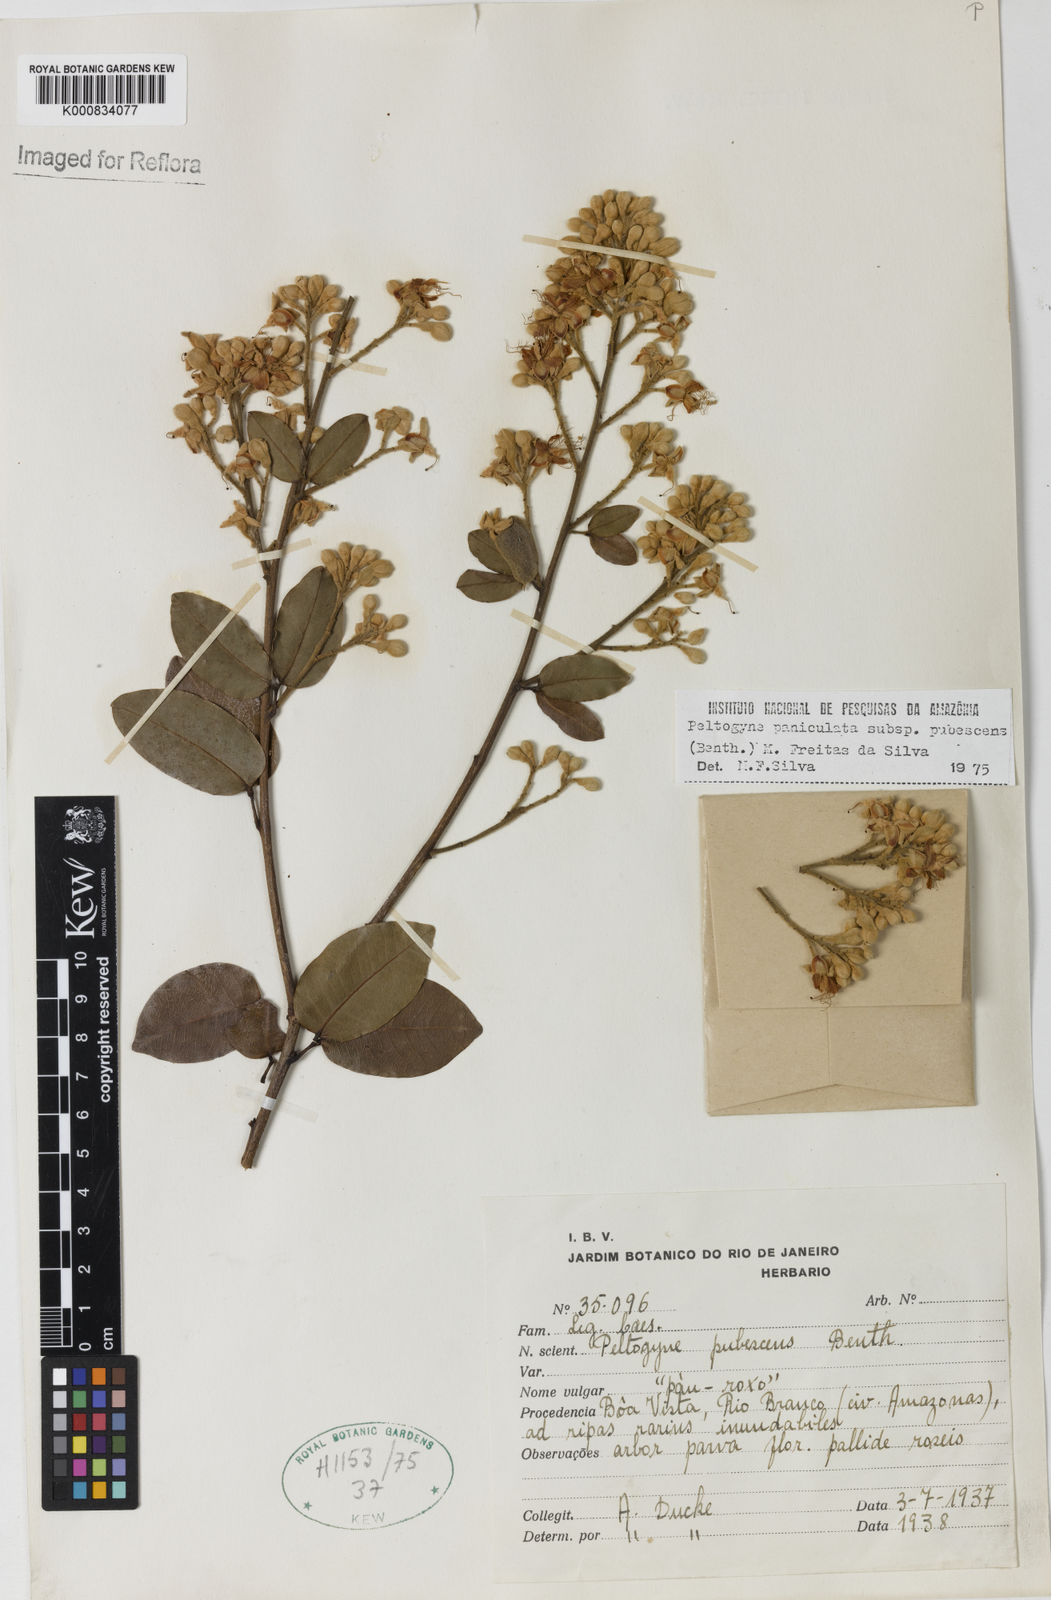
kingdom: Plantae
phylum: Tracheophyta
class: Magnoliopsida
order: Fabales
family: Fabaceae
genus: Peltogyne
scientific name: Peltogyne paniculata
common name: Purpleheart
